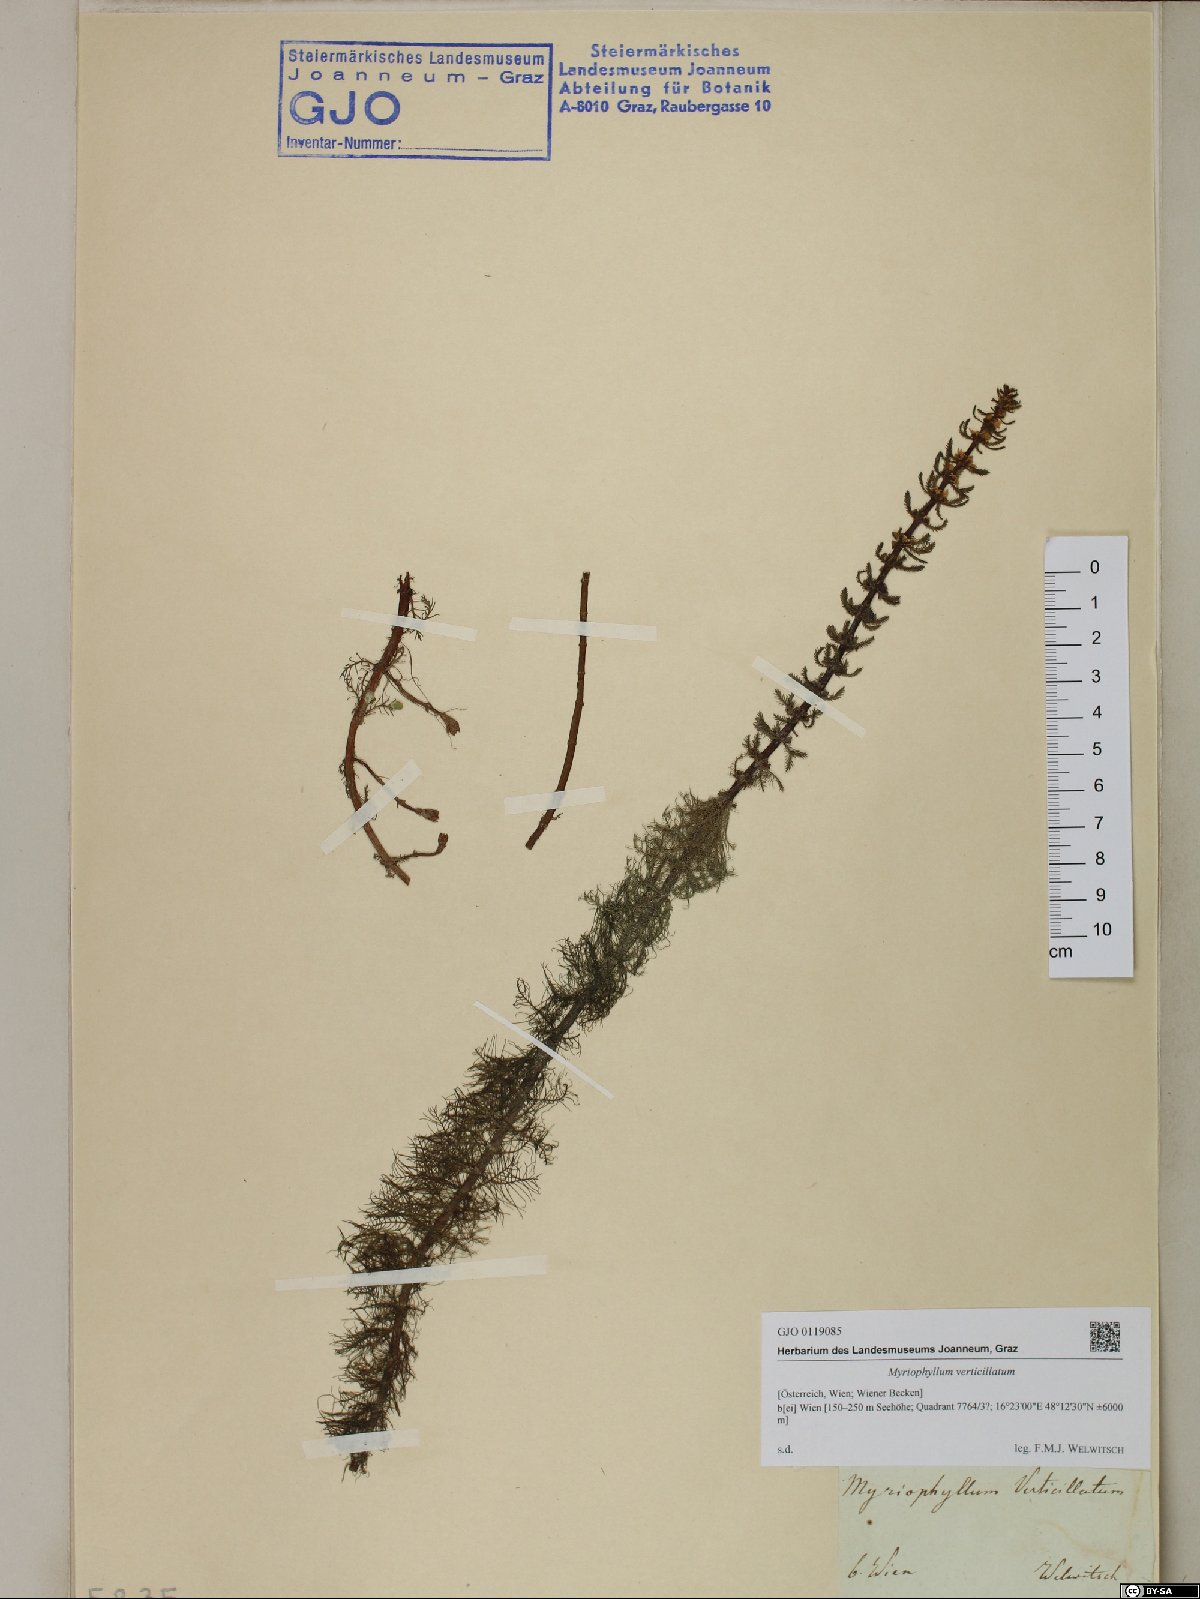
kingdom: Plantae
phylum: Tracheophyta
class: Magnoliopsida
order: Saxifragales
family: Haloragaceae
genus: Myriophyllum
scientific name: Myriophyllum verticillatum
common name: Whorled water-milfoil
